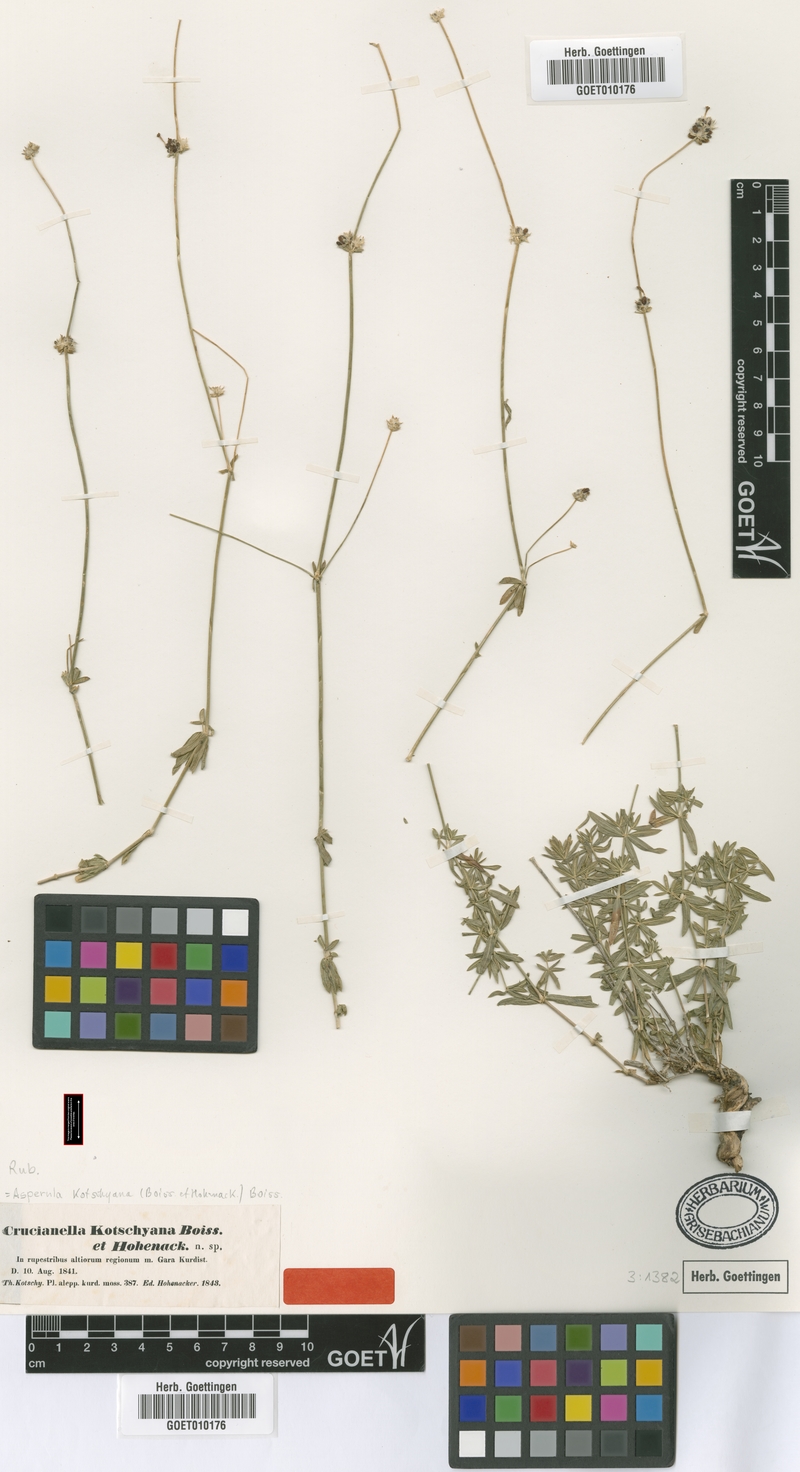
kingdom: Plantae
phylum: Tracheophyta
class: Magnoliopsida
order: Gentianales
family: Rubiaceae
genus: Asperula
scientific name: Asperula kotschyana
